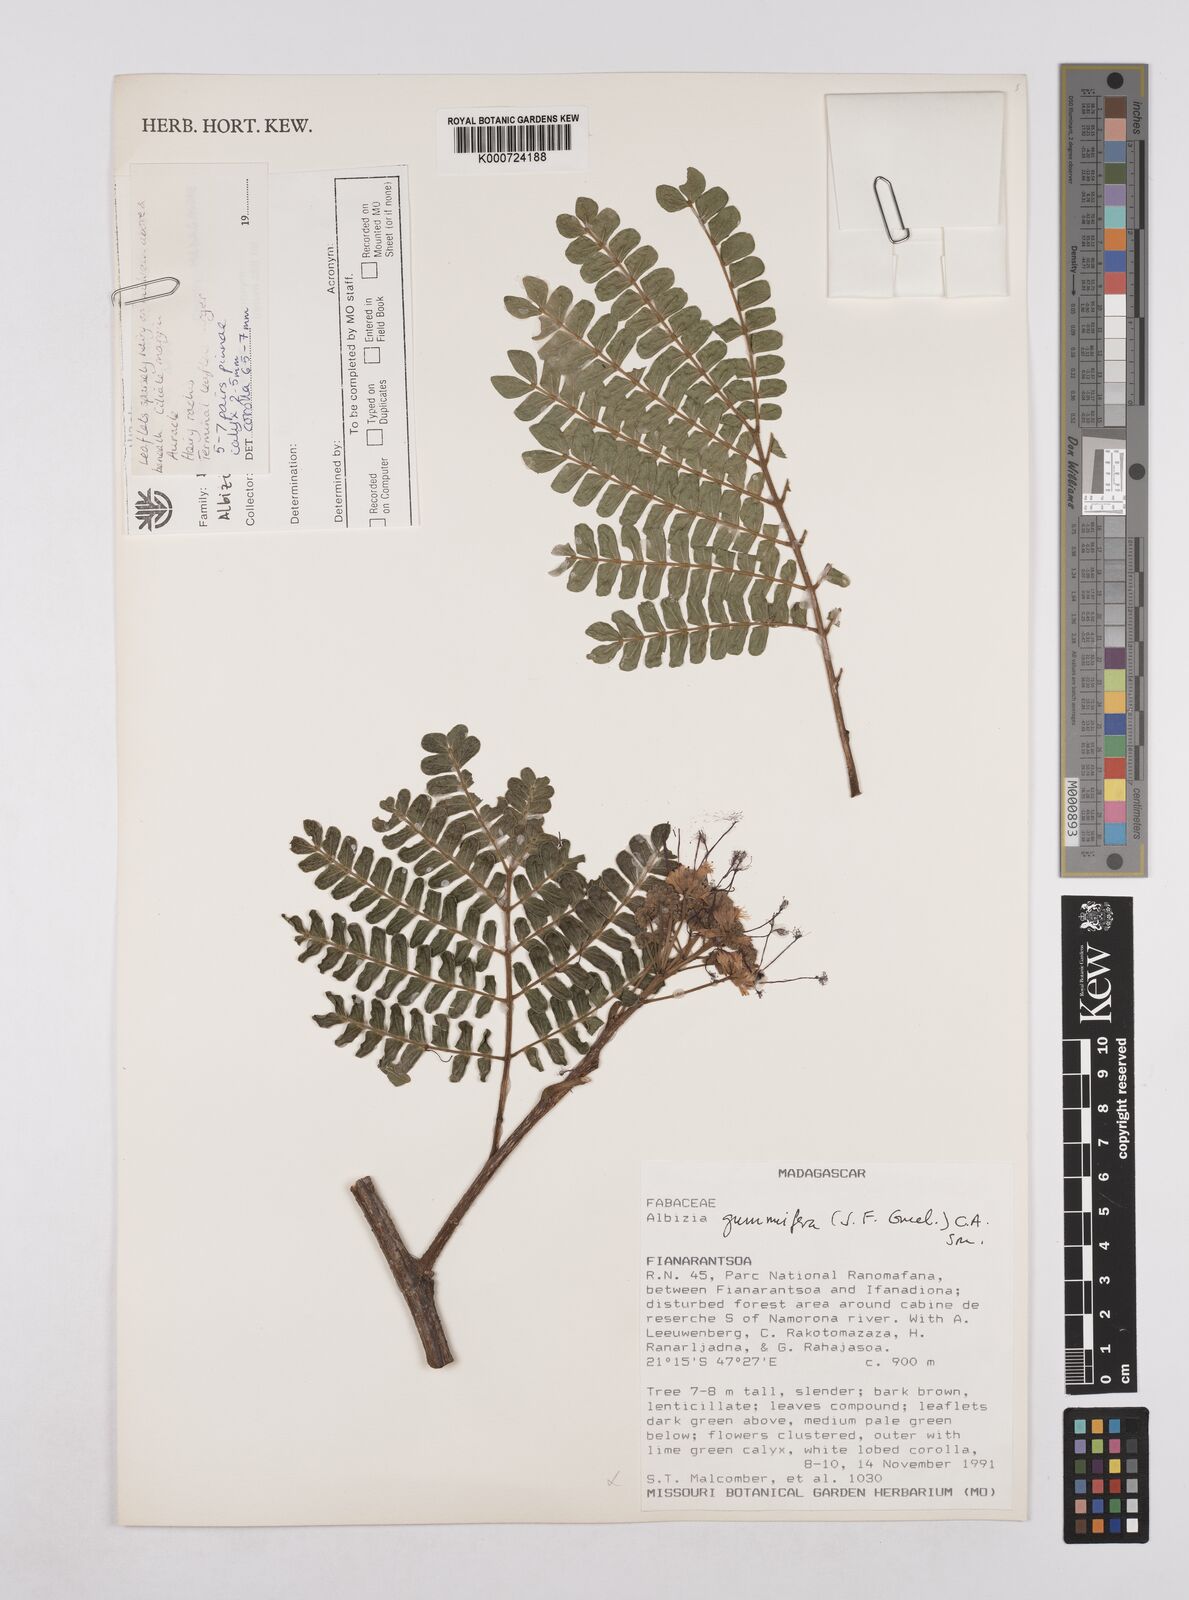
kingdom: Plantae
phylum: Tracheophyta
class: Magnoliopsida
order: Fabales
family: Fabaceae
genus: Albizia
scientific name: Albizia gummifera
